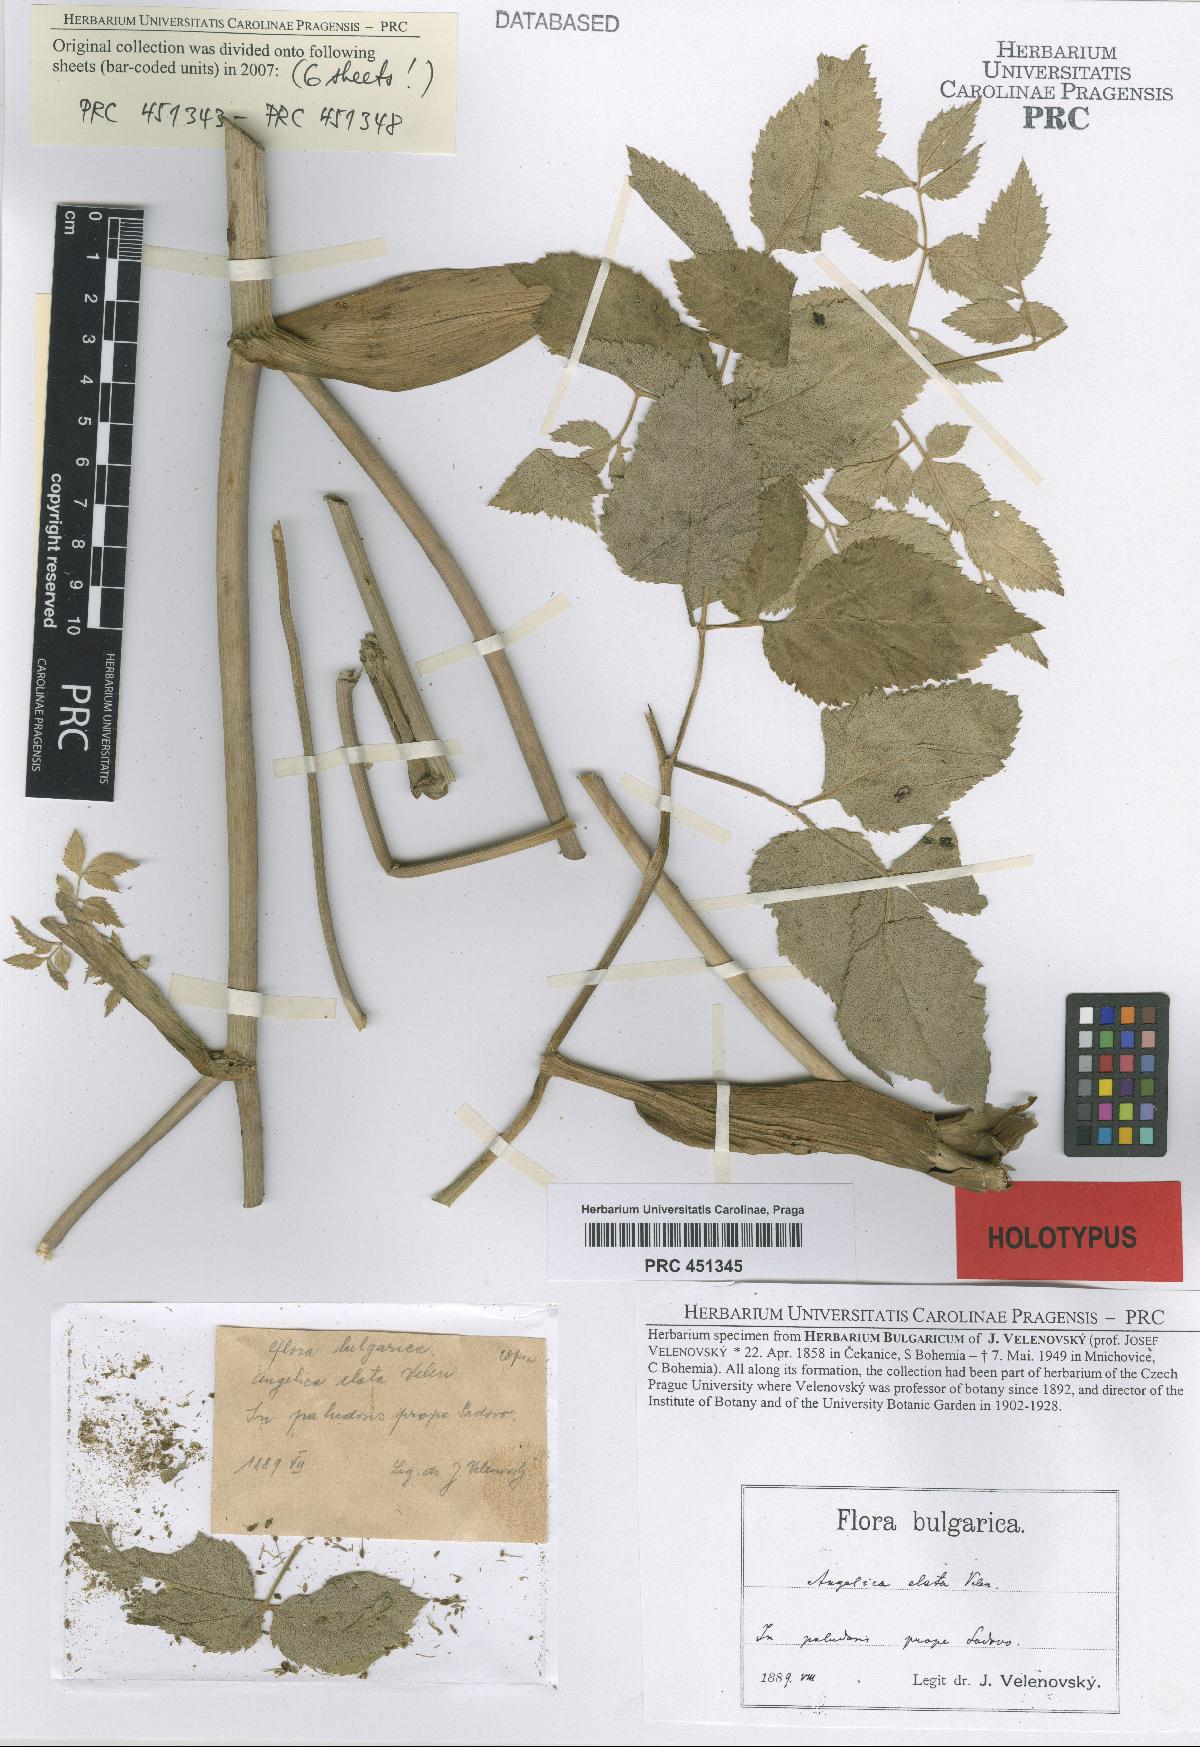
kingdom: Plantae
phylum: Tracheophyta
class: Magnoliopsida
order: Apiales
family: Apiaceae
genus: Angelica
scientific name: Angelica sylvestris
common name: Wild angelica
